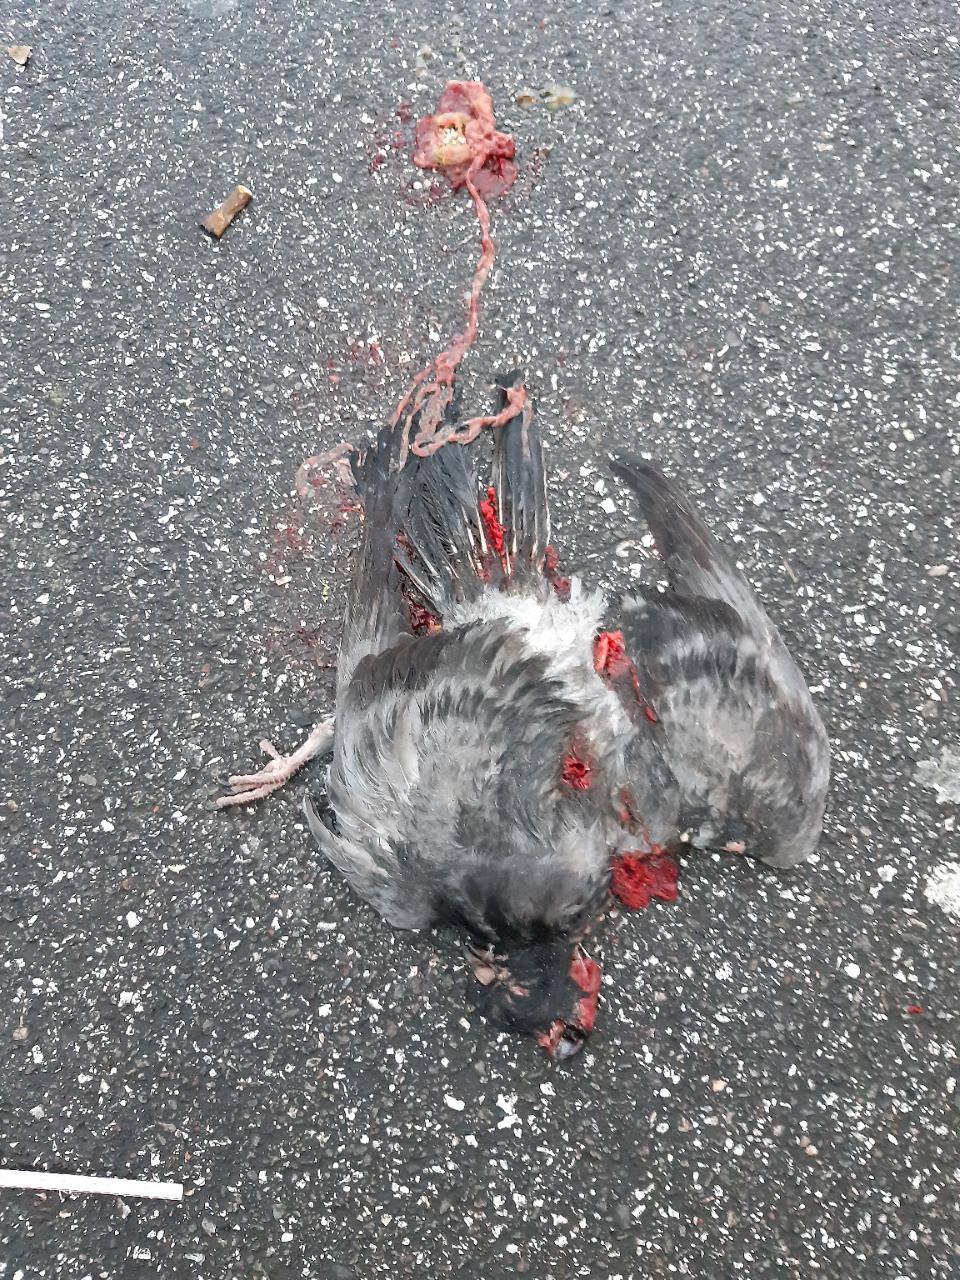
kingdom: Animalia
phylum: Chordata
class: Aves
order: Columbiformes
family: Columbidae
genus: Columba
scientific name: Columba livia
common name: Rock pigeon
